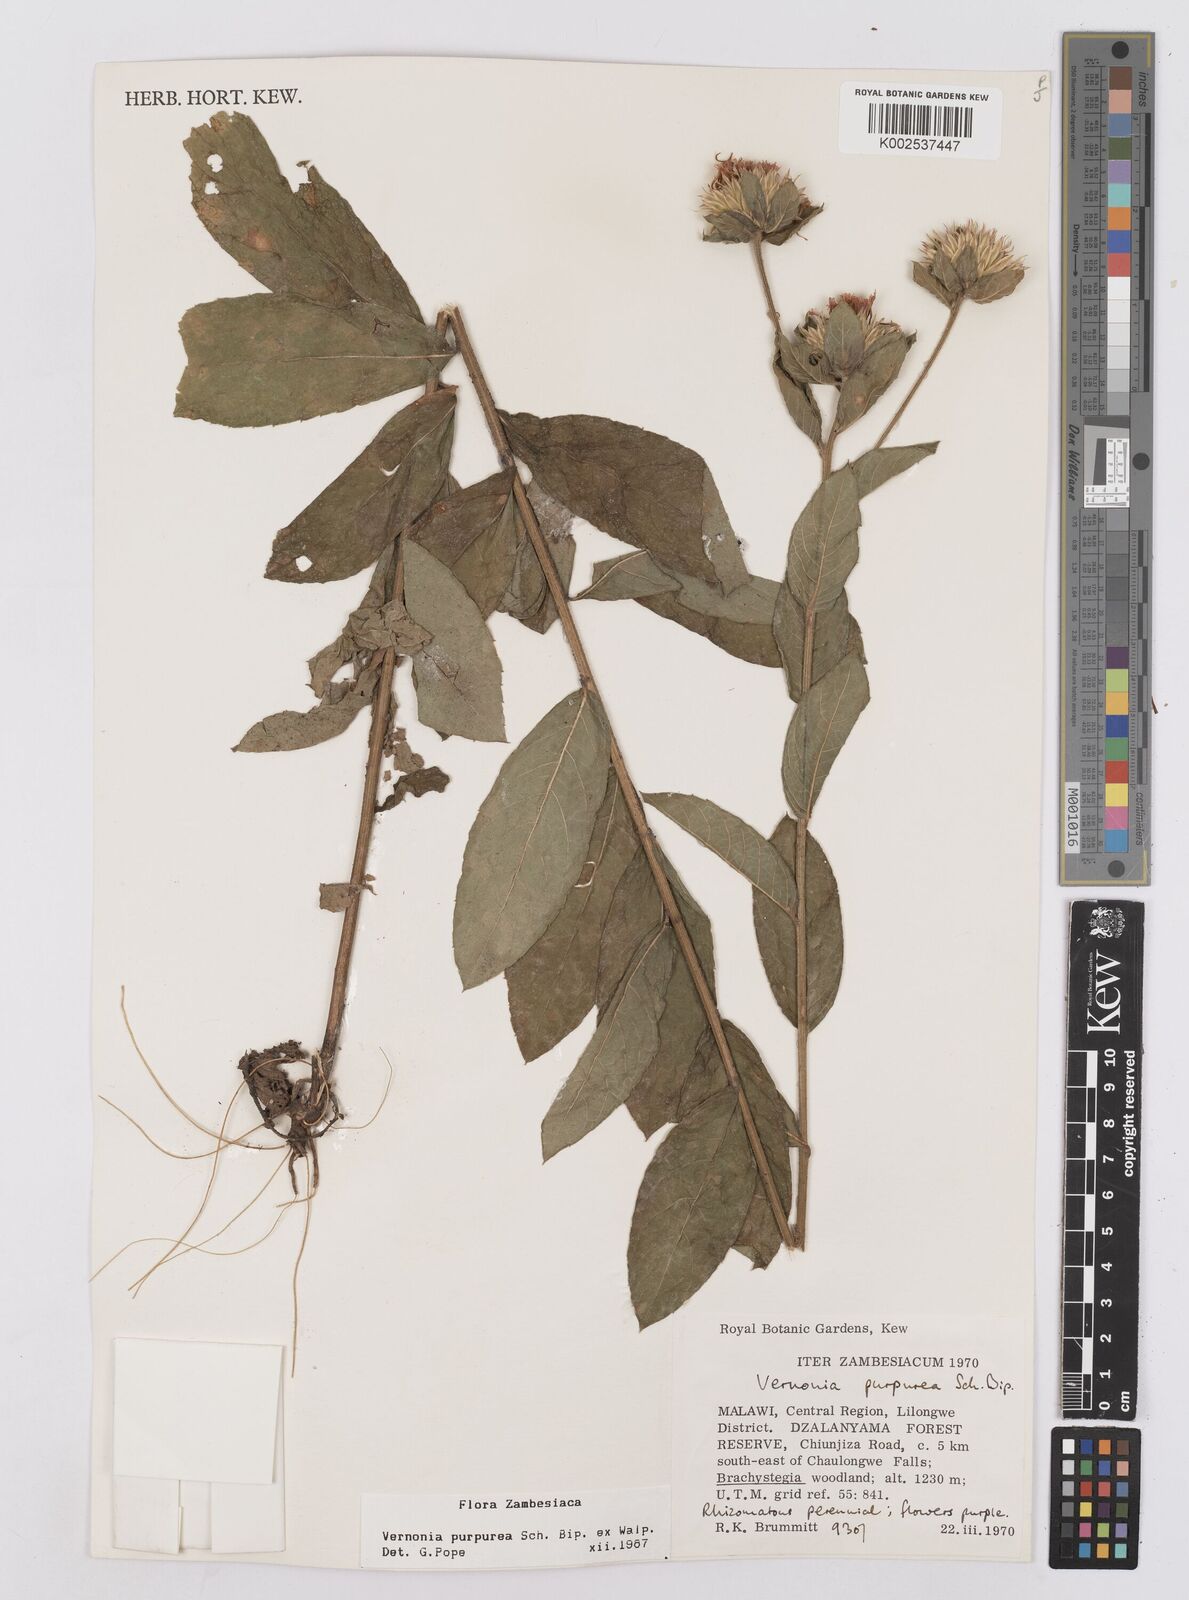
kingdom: Plantae
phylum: Tracheophyta
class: Magnoliopsida
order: Asterales
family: Asteraceae
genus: Nothovernonia
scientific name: Nothovernonia purpurea
